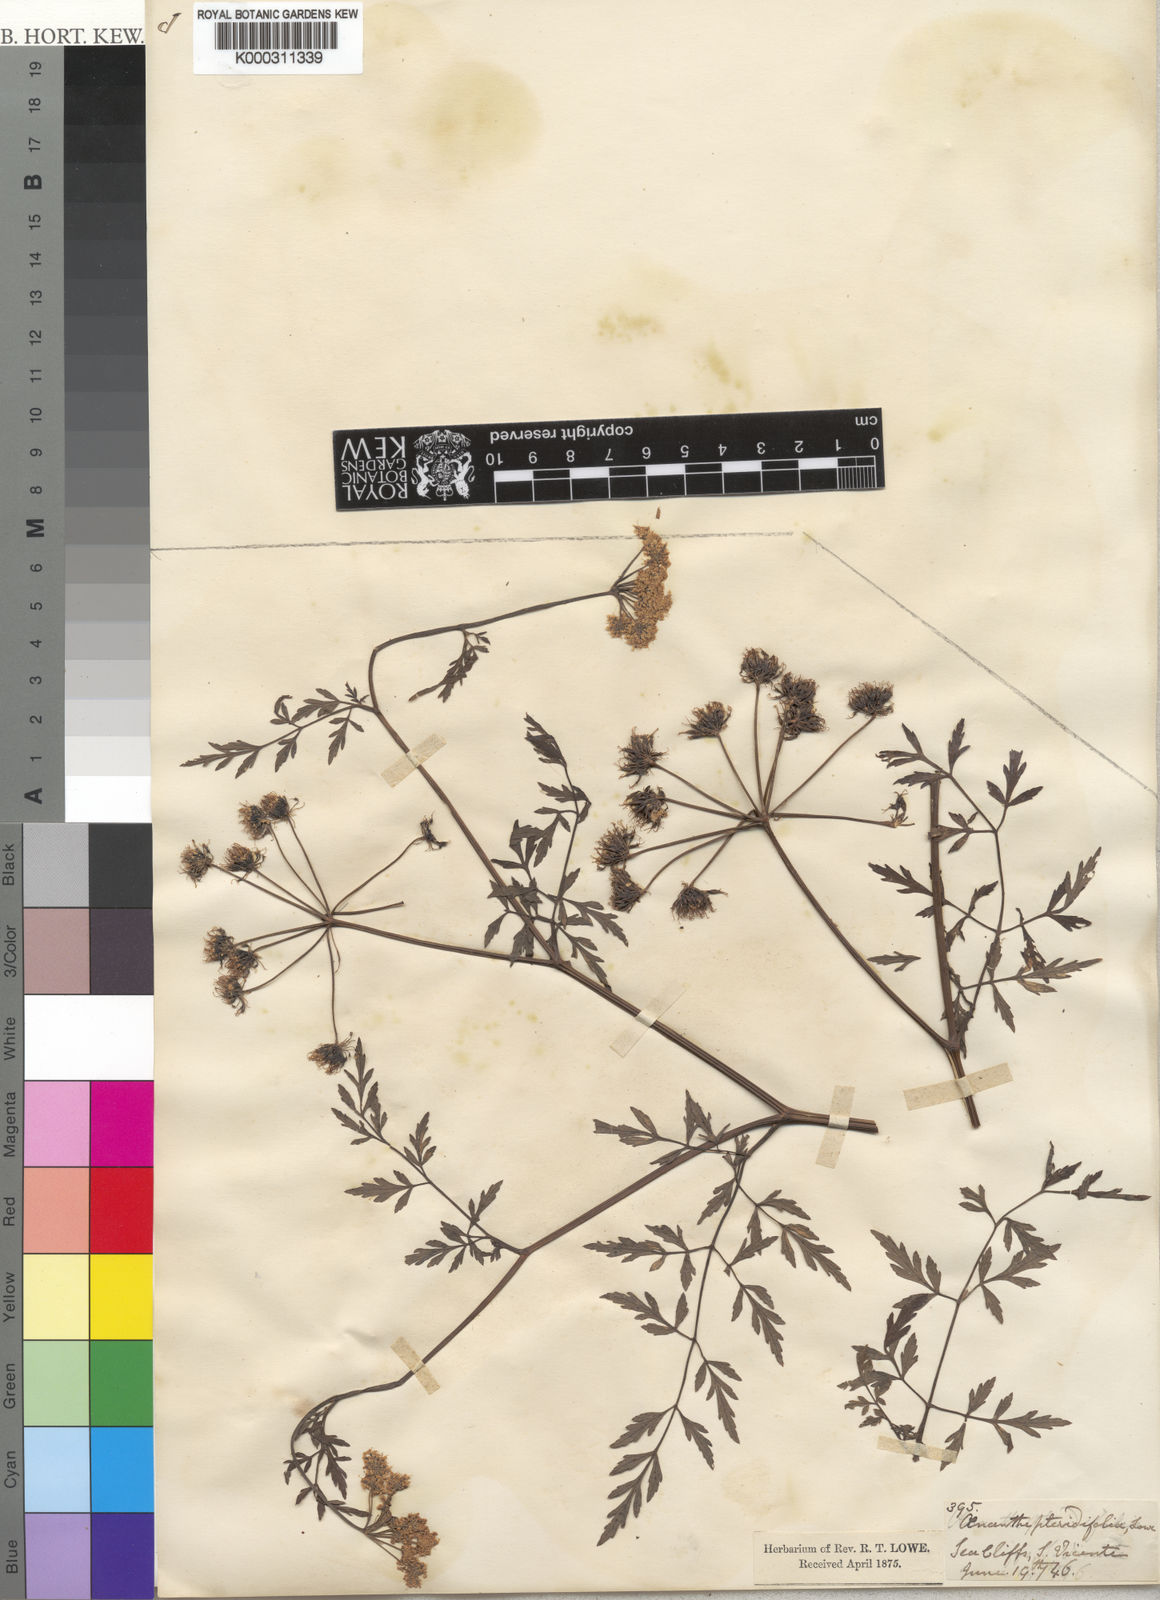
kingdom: Plantae
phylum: Tracheophyta
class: Magnoliopsida
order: Apiales
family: Apiaceae
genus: Oenanthe
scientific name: Oenanthe pteridifolia
